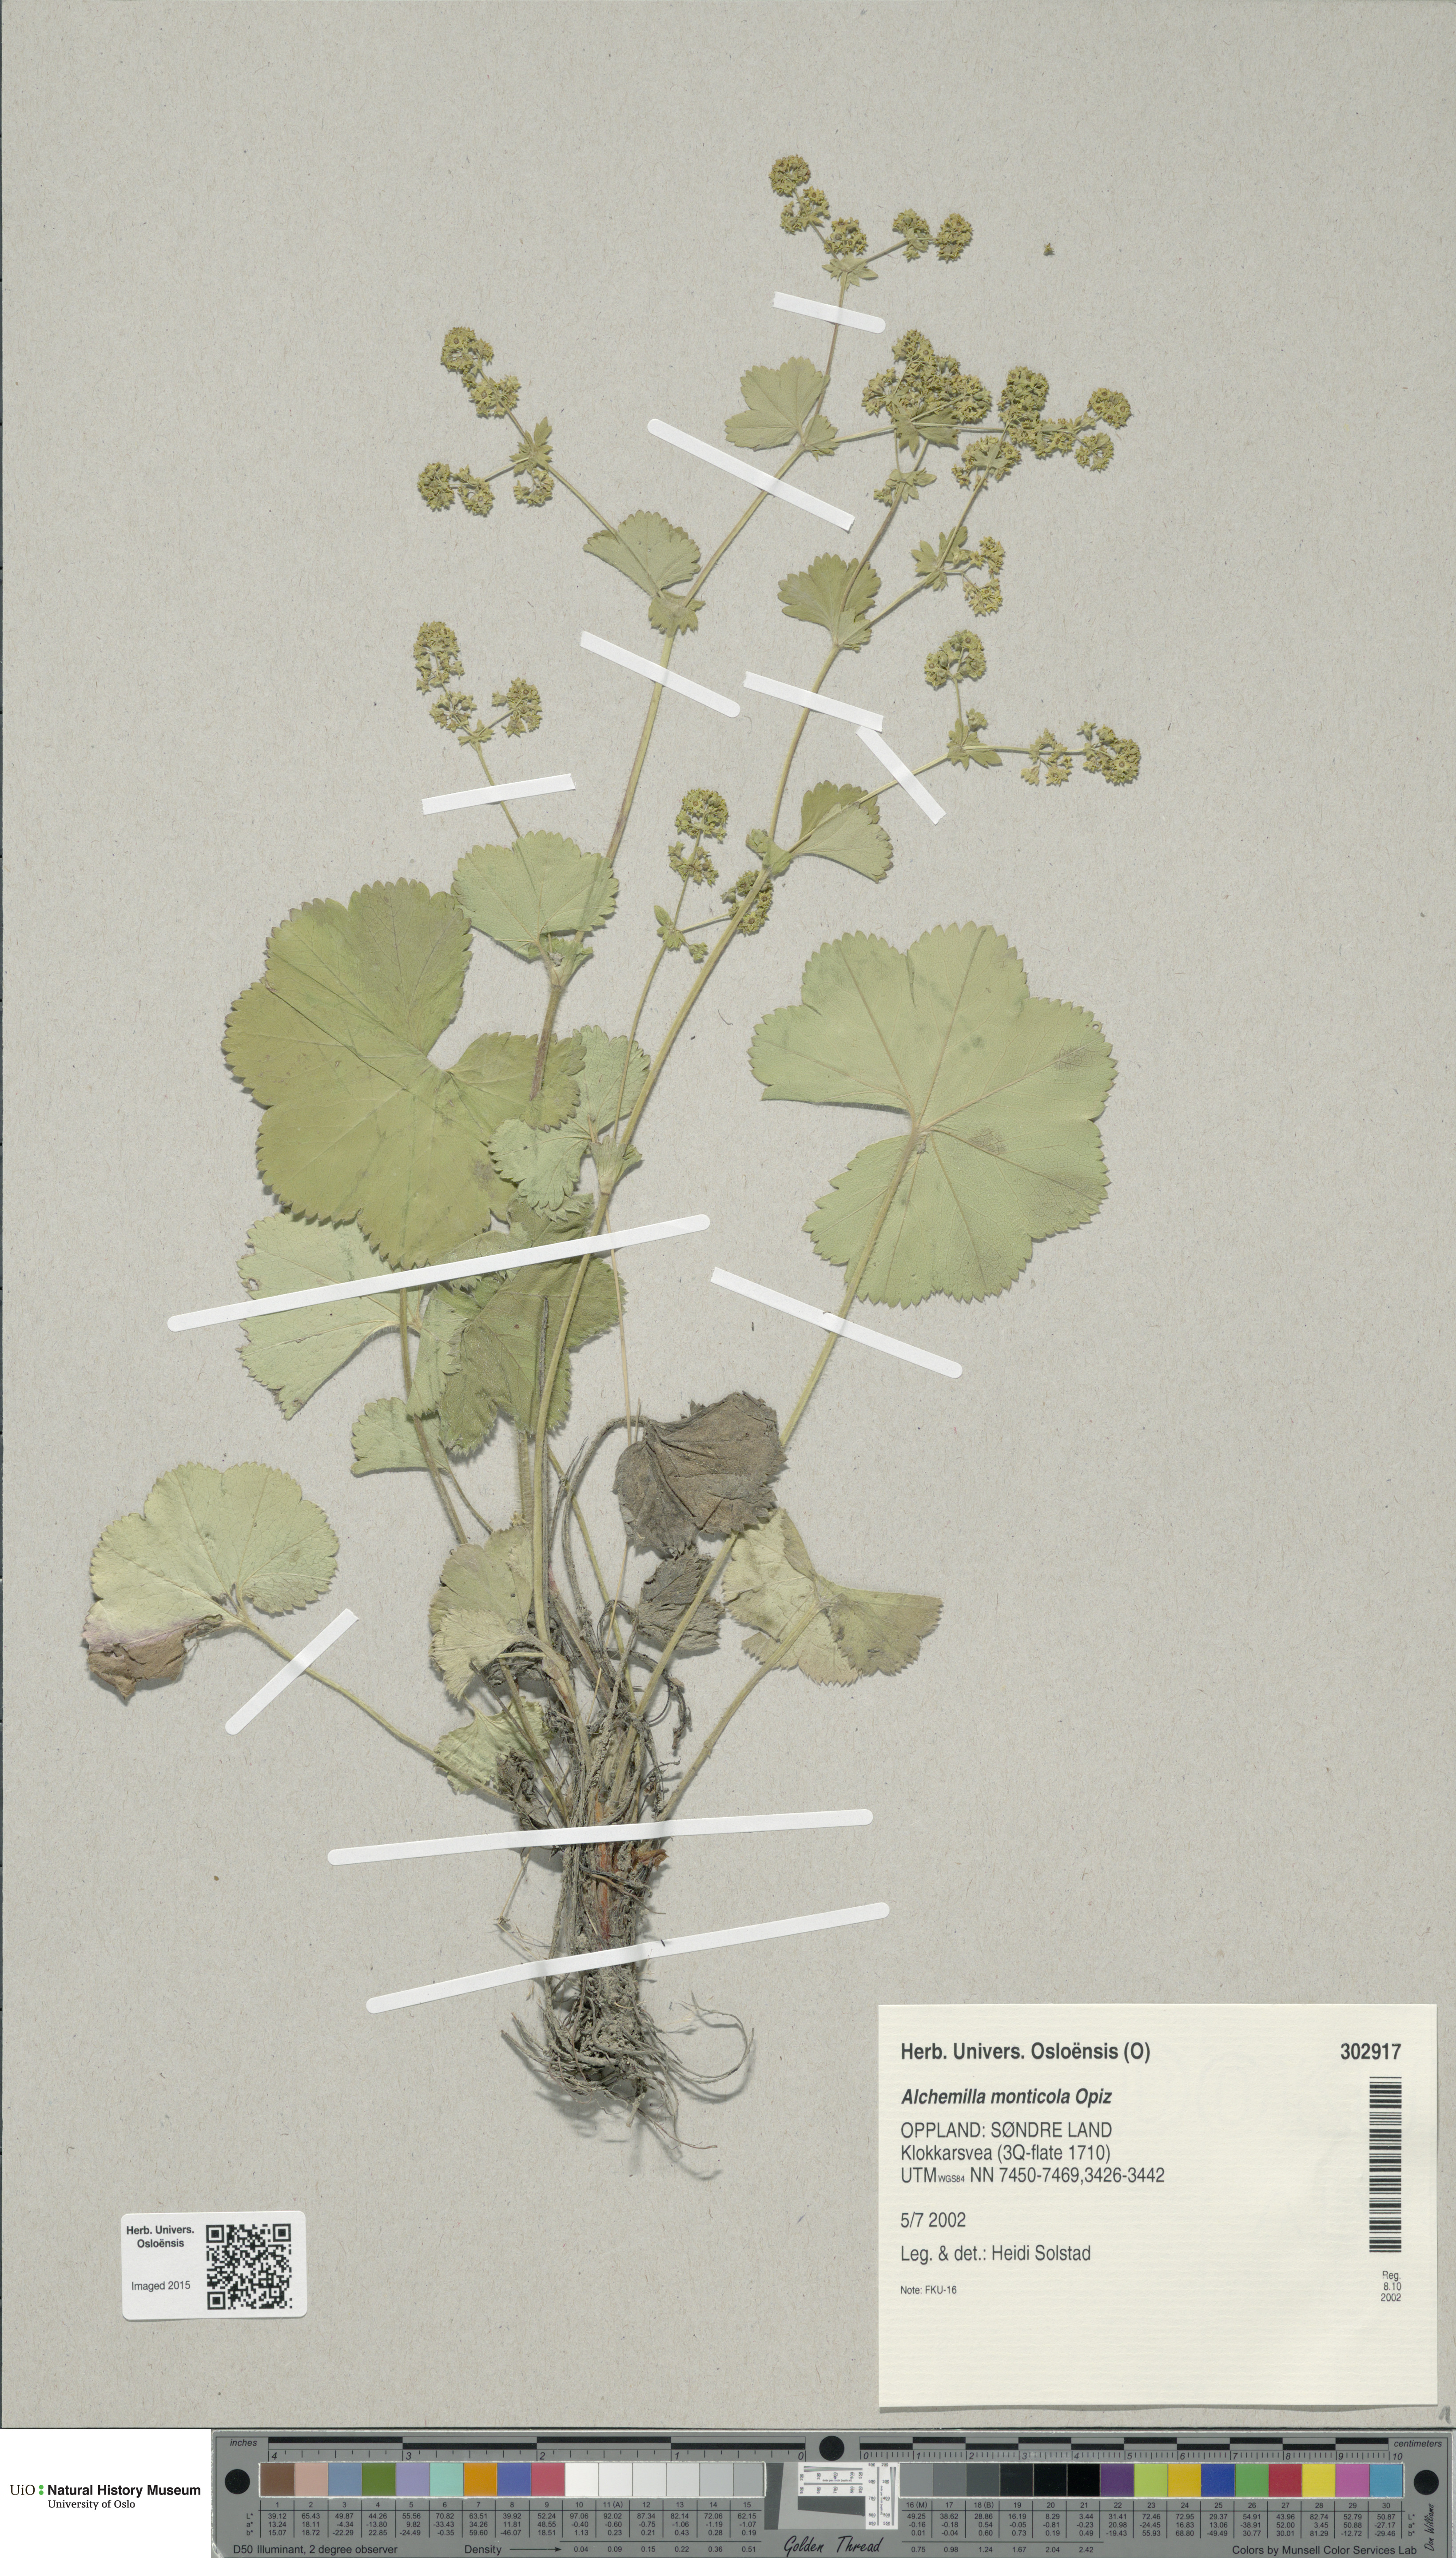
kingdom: Plantae
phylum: Tracheophyta
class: Magnoliopsida
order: Rosales
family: Rosaceae
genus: Alchemilla
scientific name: Alchemilla monticola
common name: Hairy lady's mantle
